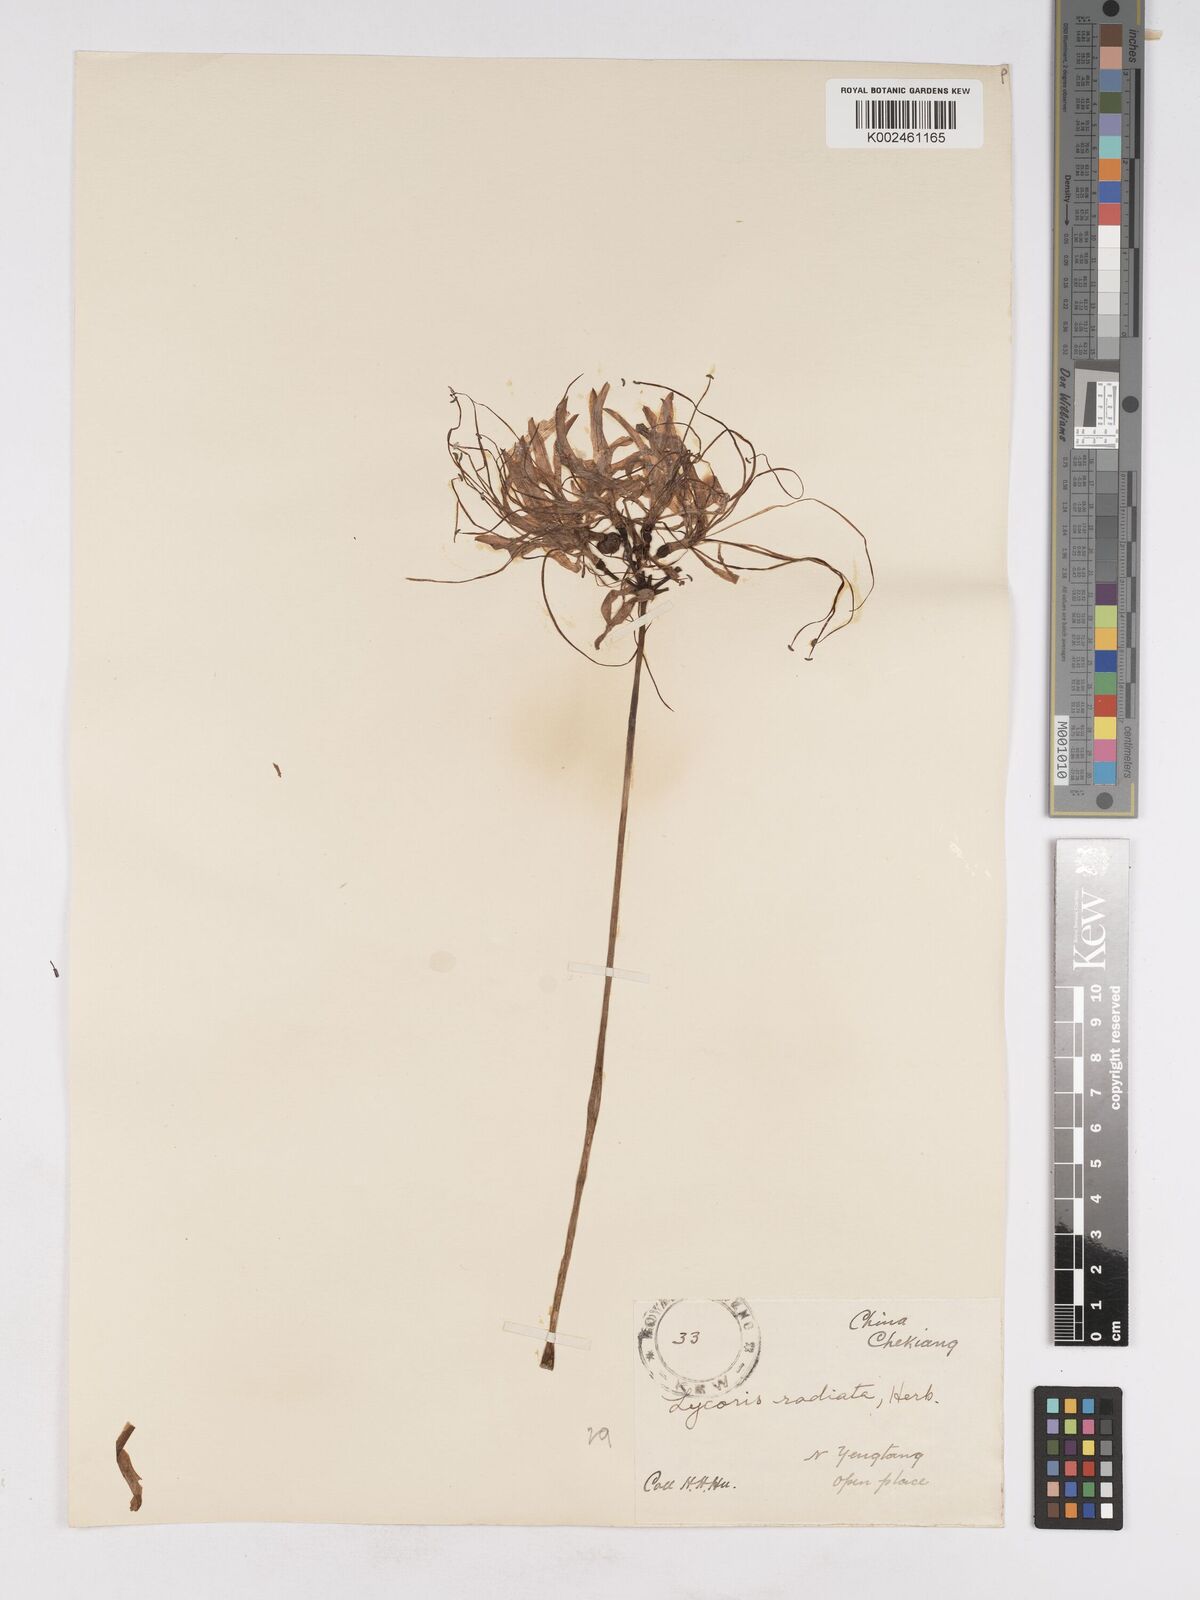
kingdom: Plantae
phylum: Tracheophyta
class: Liliopsida
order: Asparagales
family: Amaryllidaceae
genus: Lycoris
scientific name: Lycoris radiata
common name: Red spider lily
